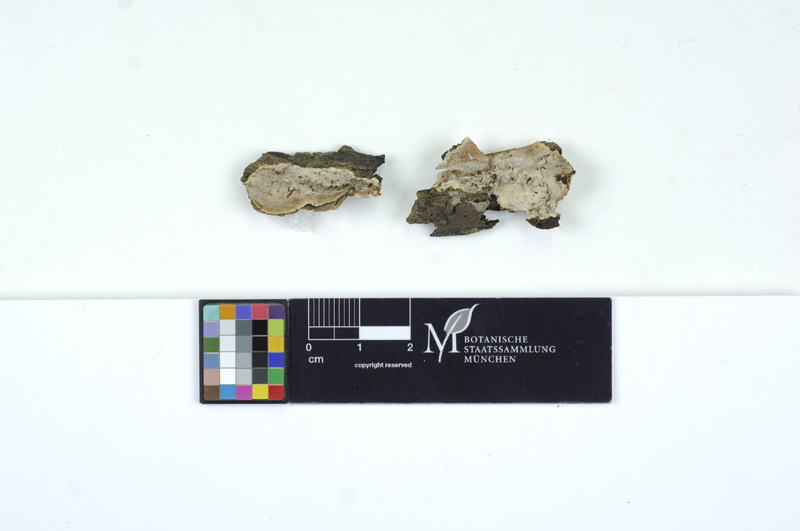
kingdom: Plantae
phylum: Tracheophyta
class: Magnoliopsida
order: Sapindales
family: Sapindaceae
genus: Acer
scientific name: Acer
